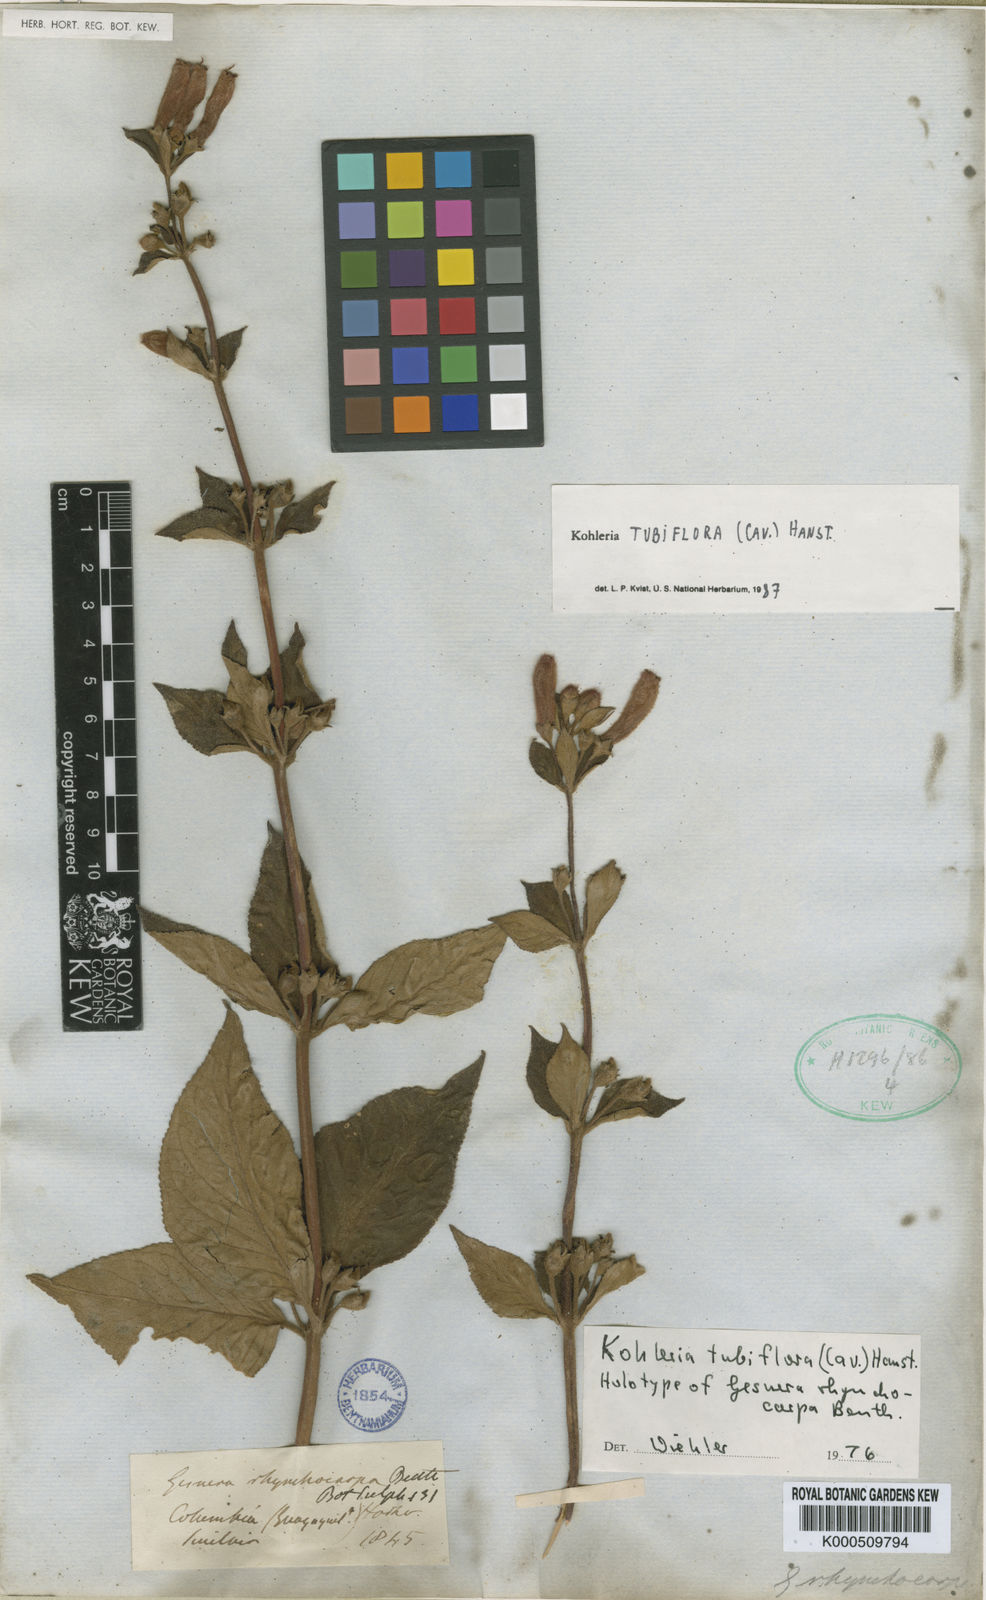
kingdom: Plantae
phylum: Tracheophyta
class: Magnoliopsida
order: Lamiales
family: Gesneriaceae
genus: Kohleria
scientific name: Kohleria
